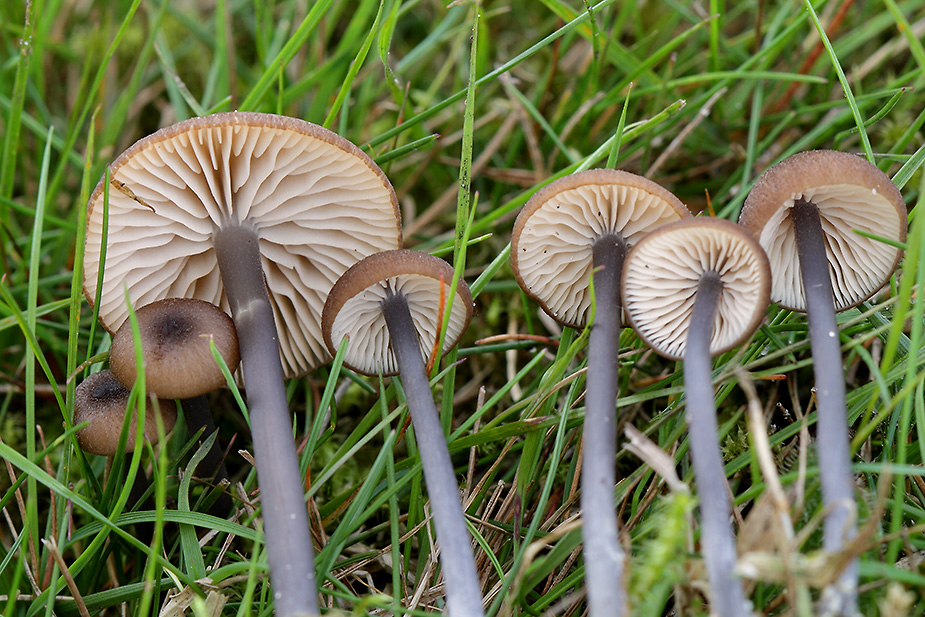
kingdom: Fungi
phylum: Basidiomycota
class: Agaricomycetes
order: Agaricales
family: Entolomataceae
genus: Entoloma
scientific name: Entoloma lividocyanulum
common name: mørkøjet rødblad
